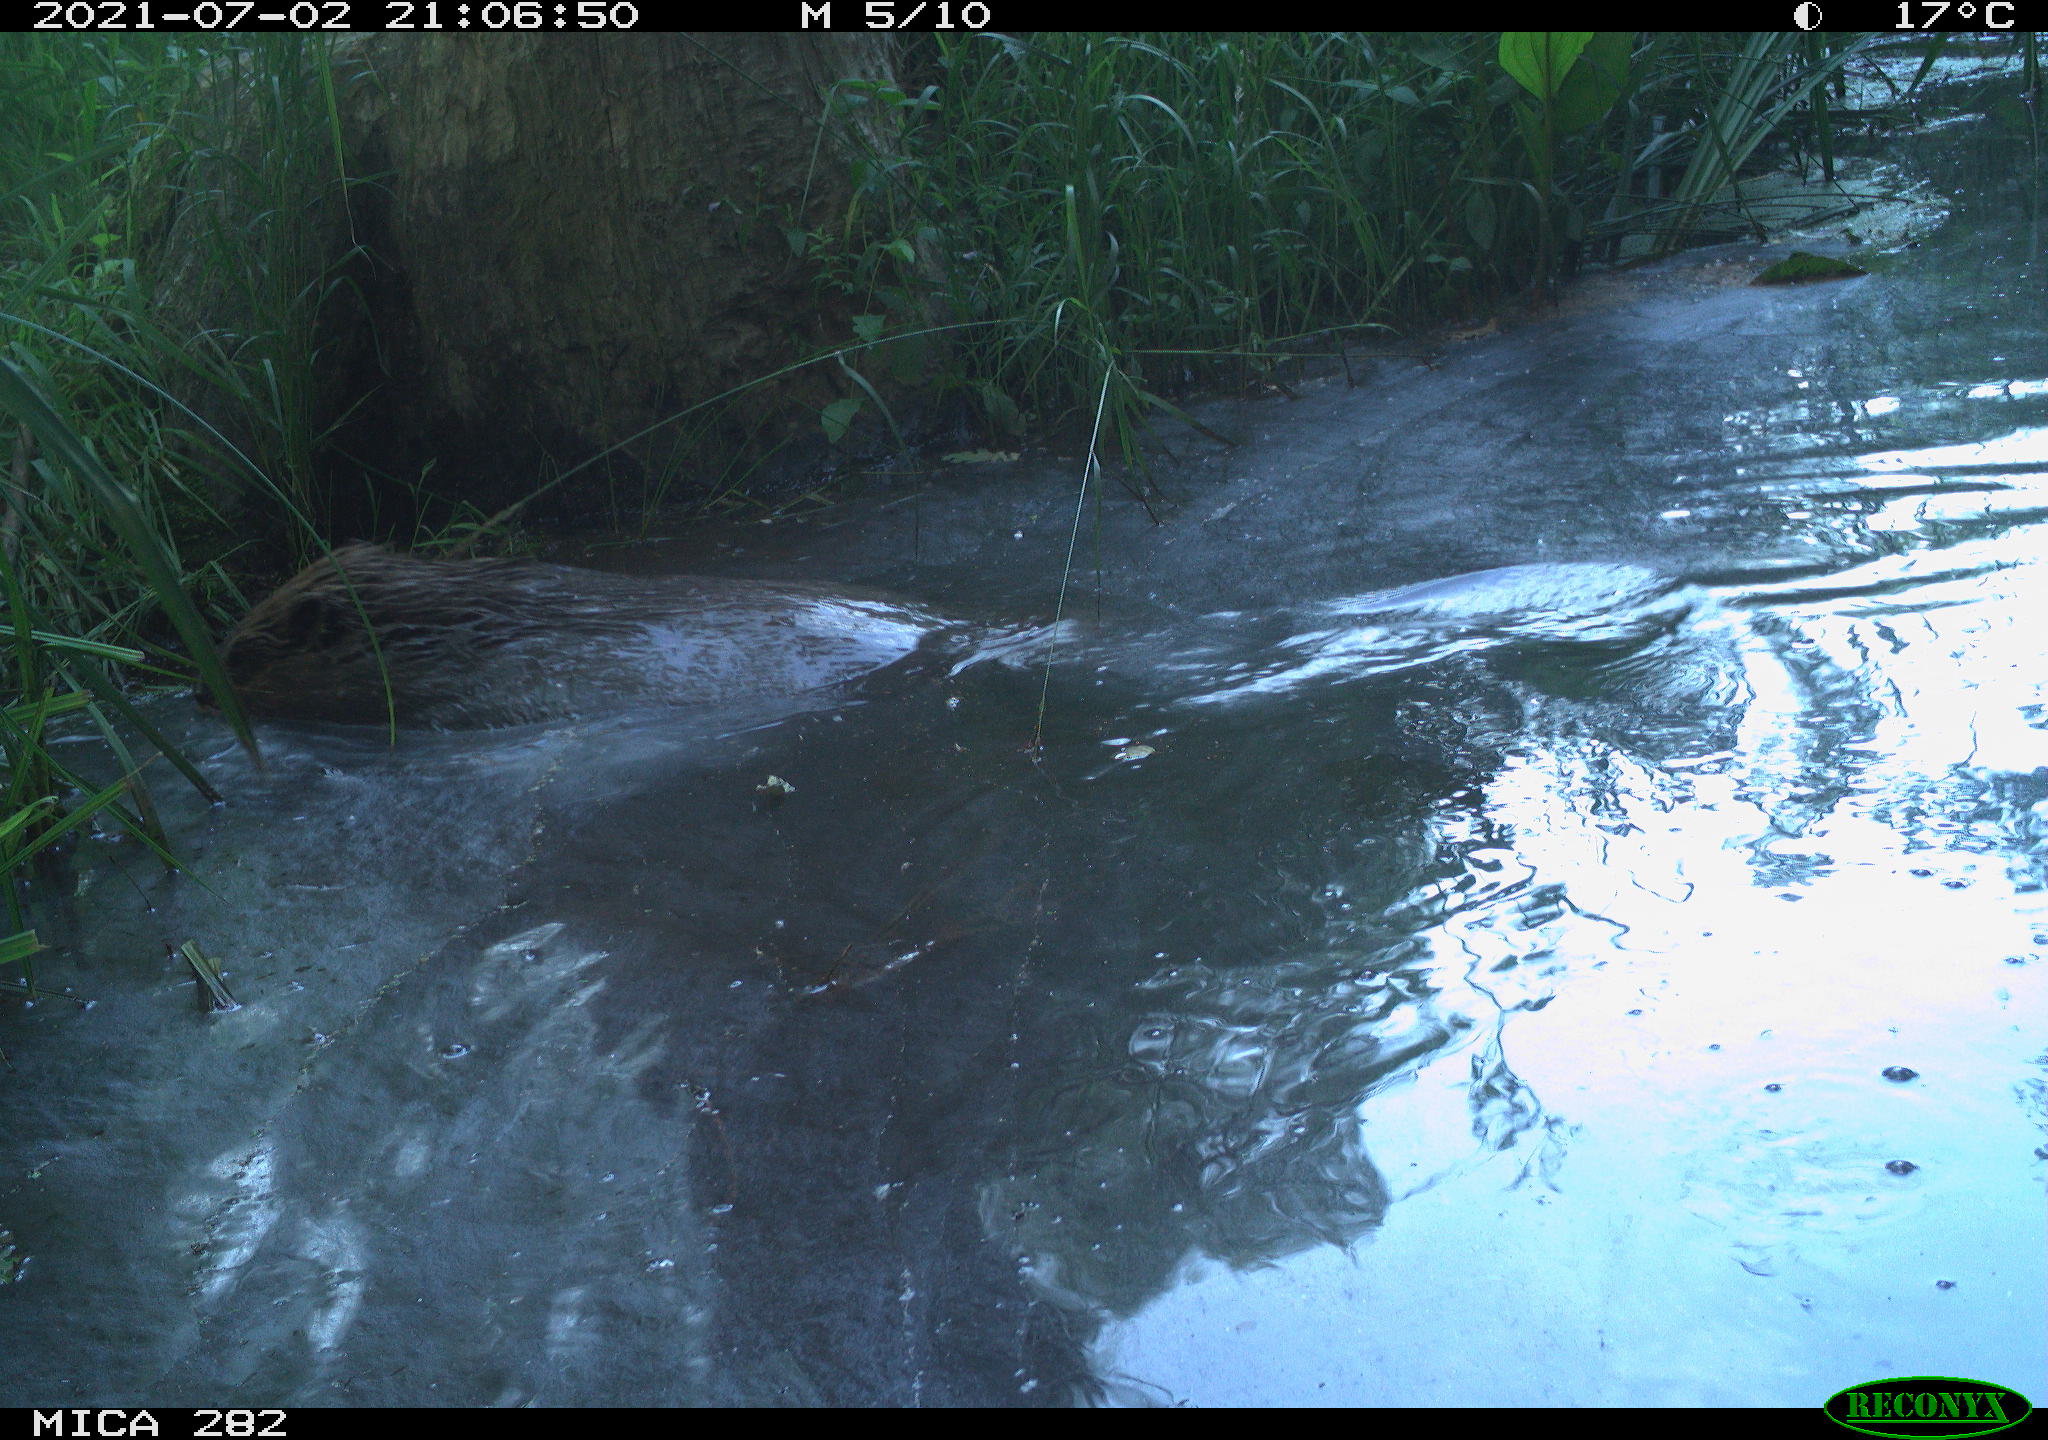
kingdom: Animalia
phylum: Chordata
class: Mammalia
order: Rodentia
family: Castoridae
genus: Castor
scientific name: Castor fiber
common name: Eurasian beaver
